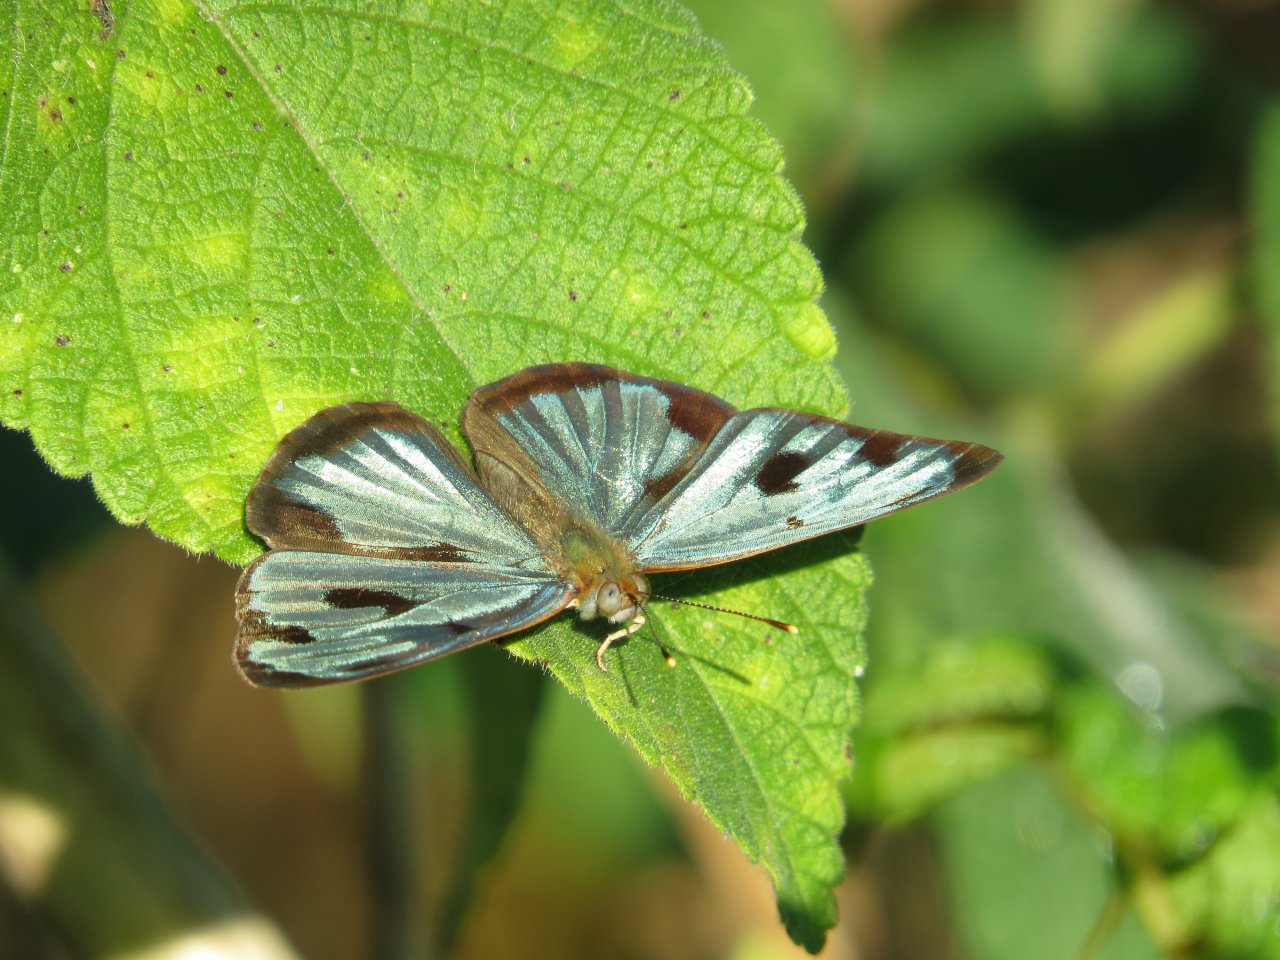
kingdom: Animalia
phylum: Arthropoda
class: Insecta
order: Lepidoptera
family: Nymphalidae
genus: Dynamine
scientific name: Dynamine mylitta
